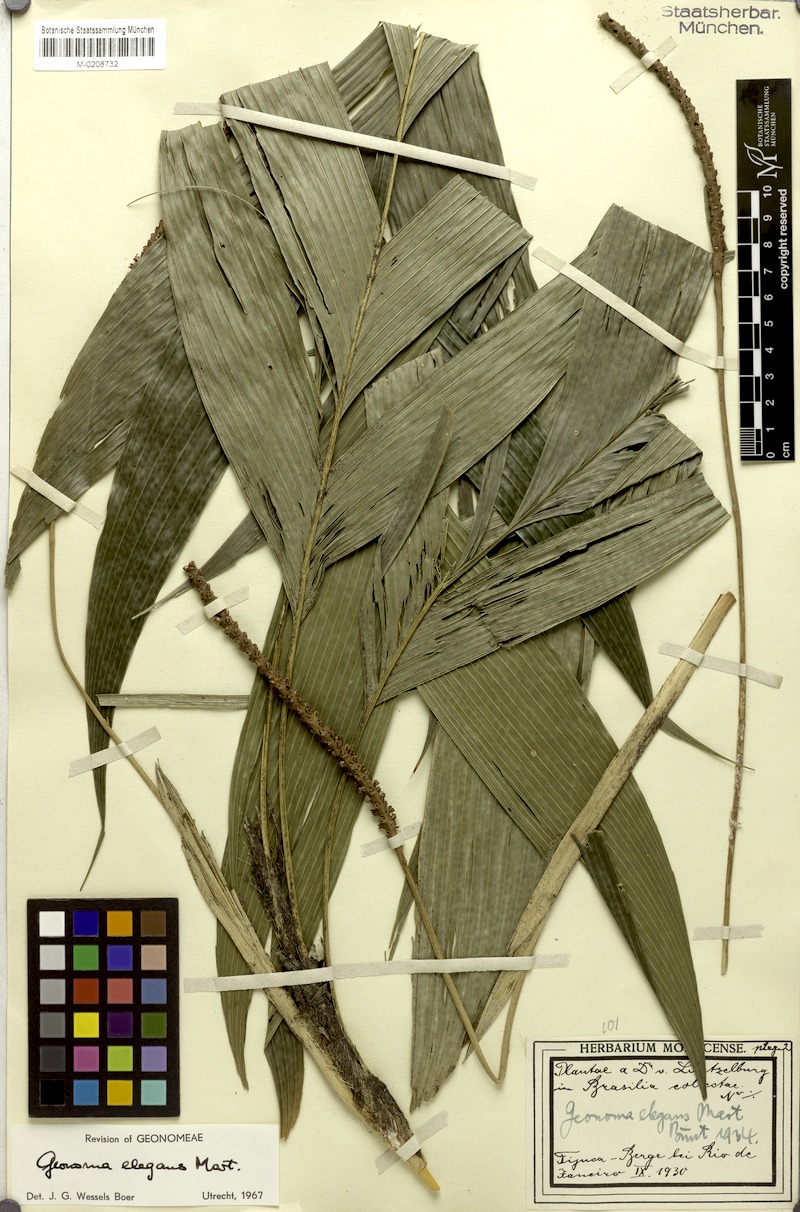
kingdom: Plantae
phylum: Tracheophyta
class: Liliopsida
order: Arecales
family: Arecaceae
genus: Geonoma
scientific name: Geonoma elegans
